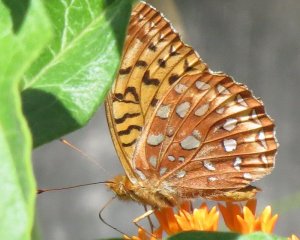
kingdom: Animalia
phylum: Arthropoda
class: Insecta
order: Lepidoptera
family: Nymphalidae
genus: Speyeria
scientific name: Speyeria aphrodite
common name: Aphrodite Fritillary
